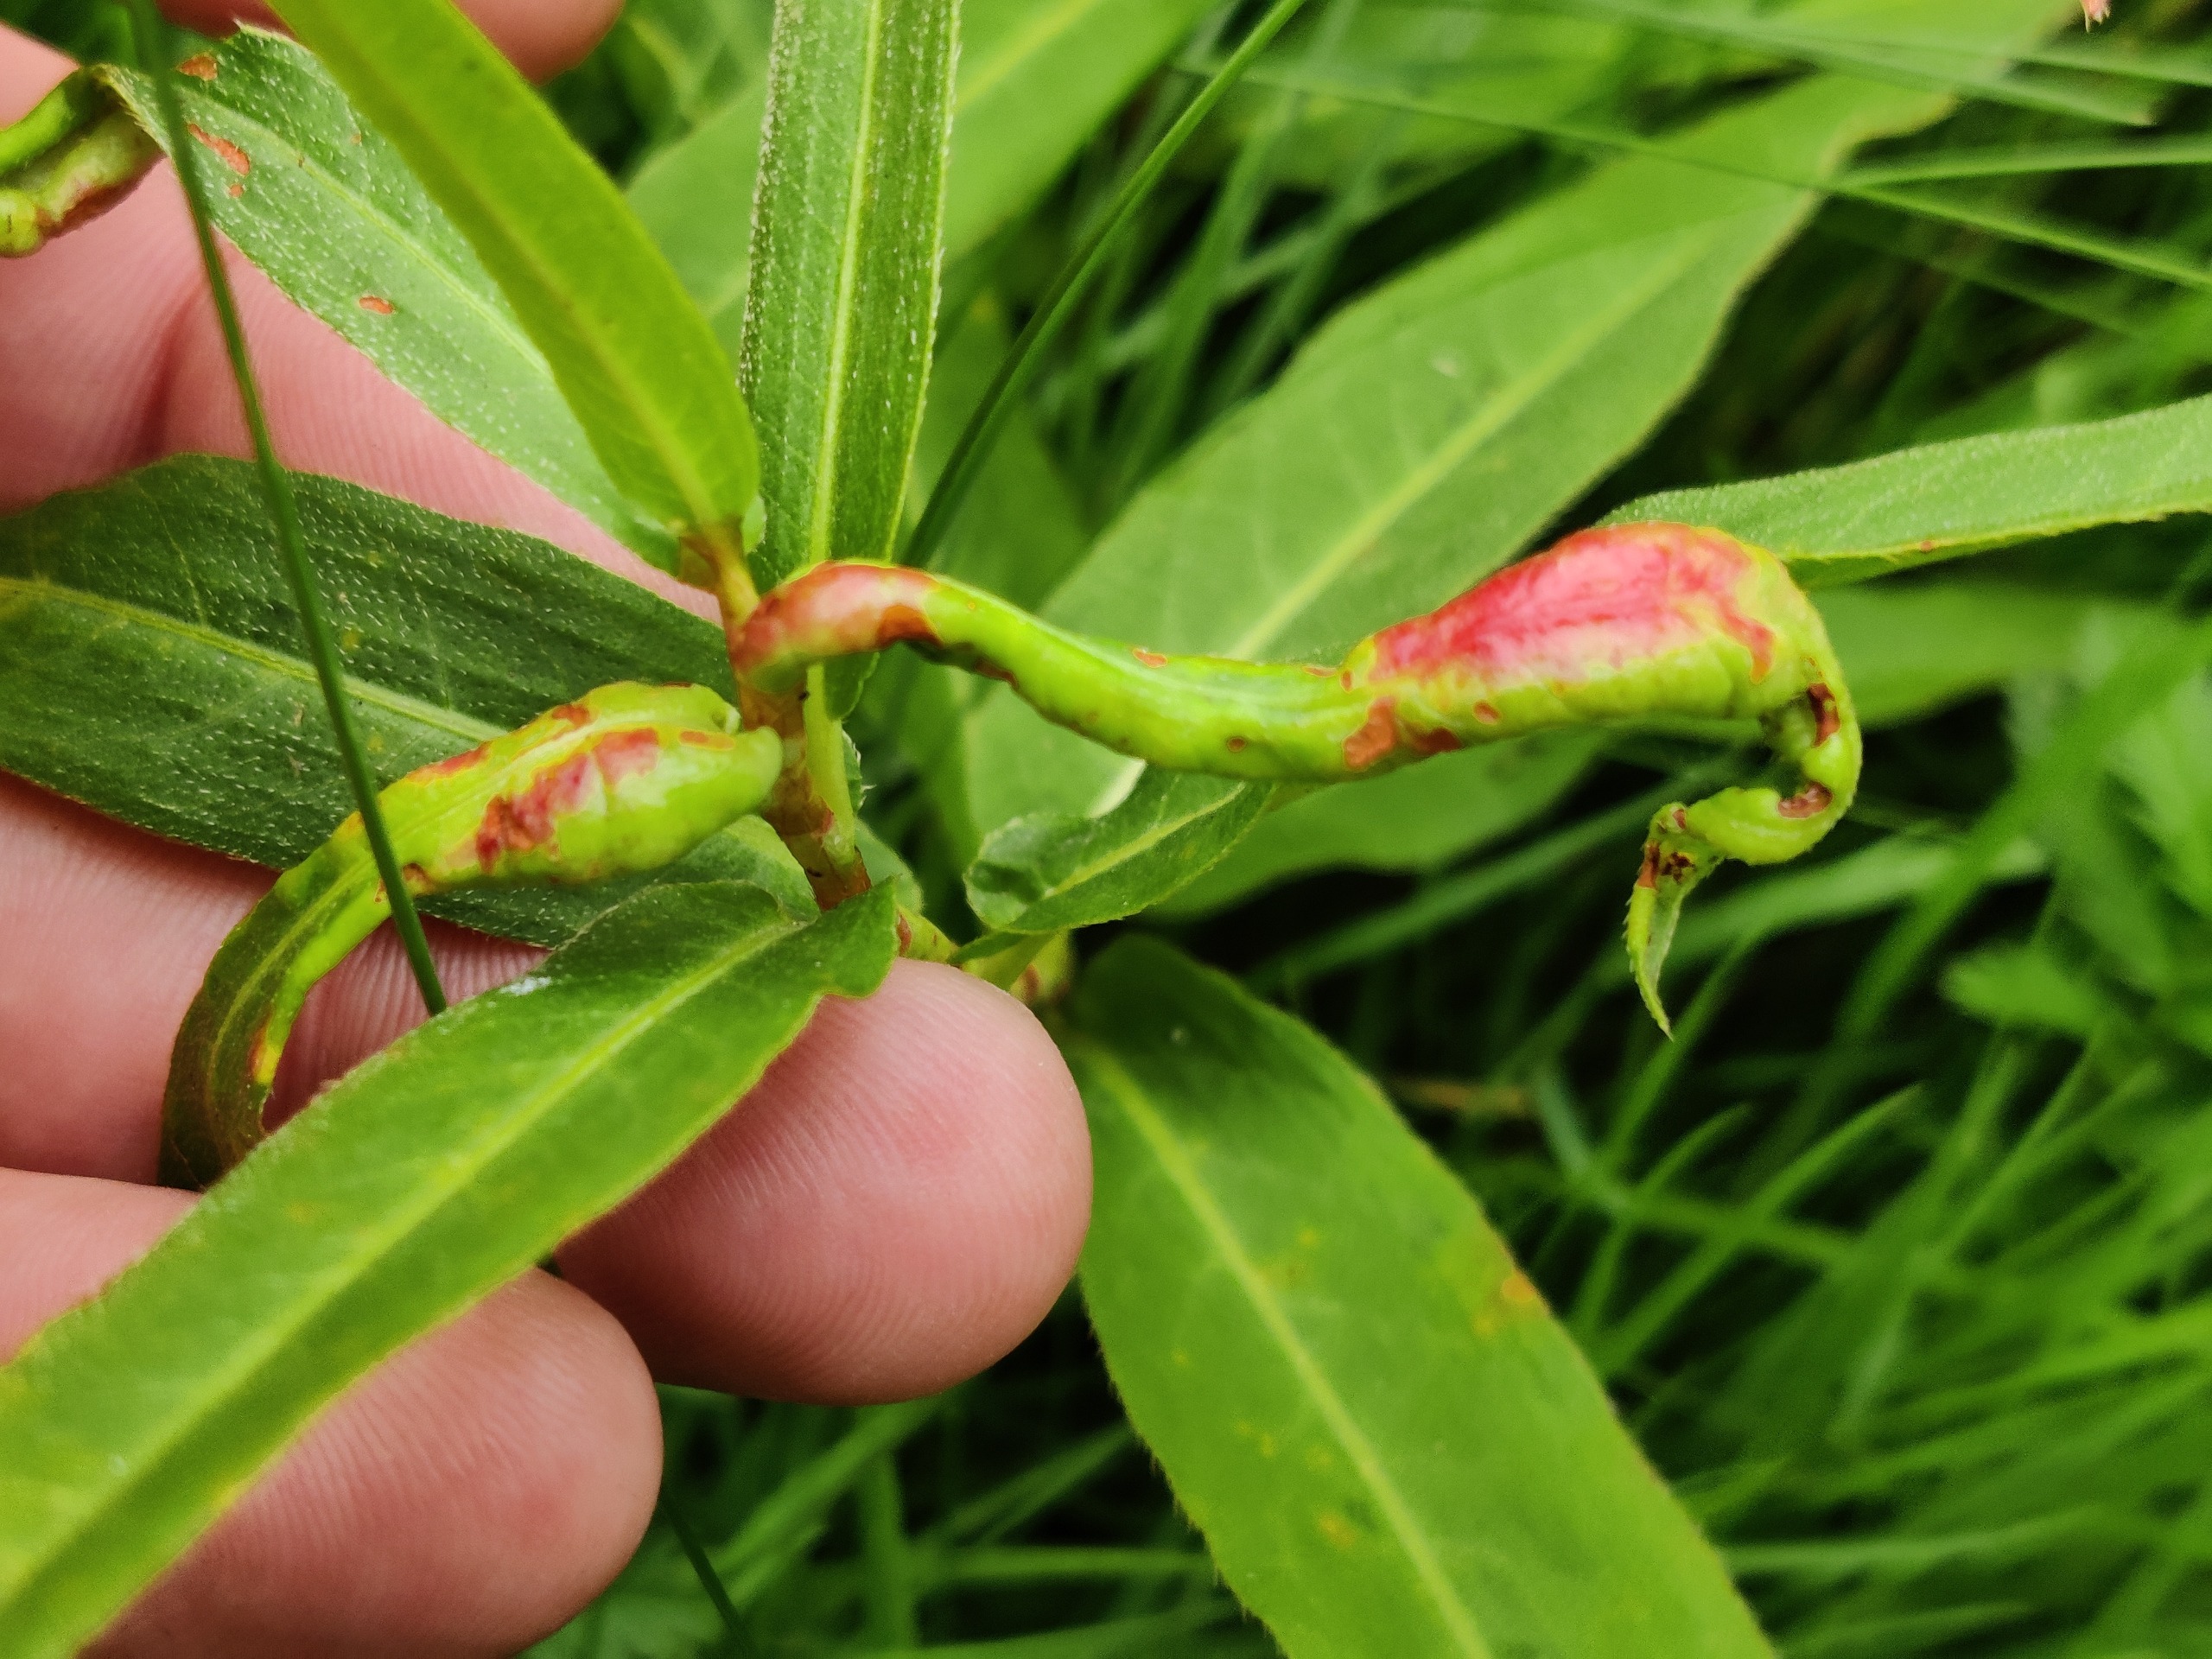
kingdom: Animalia
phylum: Arthropoda
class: Insecta
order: Diptera
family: Cecidomyiidae
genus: Wachtliella
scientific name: Wachtliella persicariae
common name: Pileurtgalmyg
